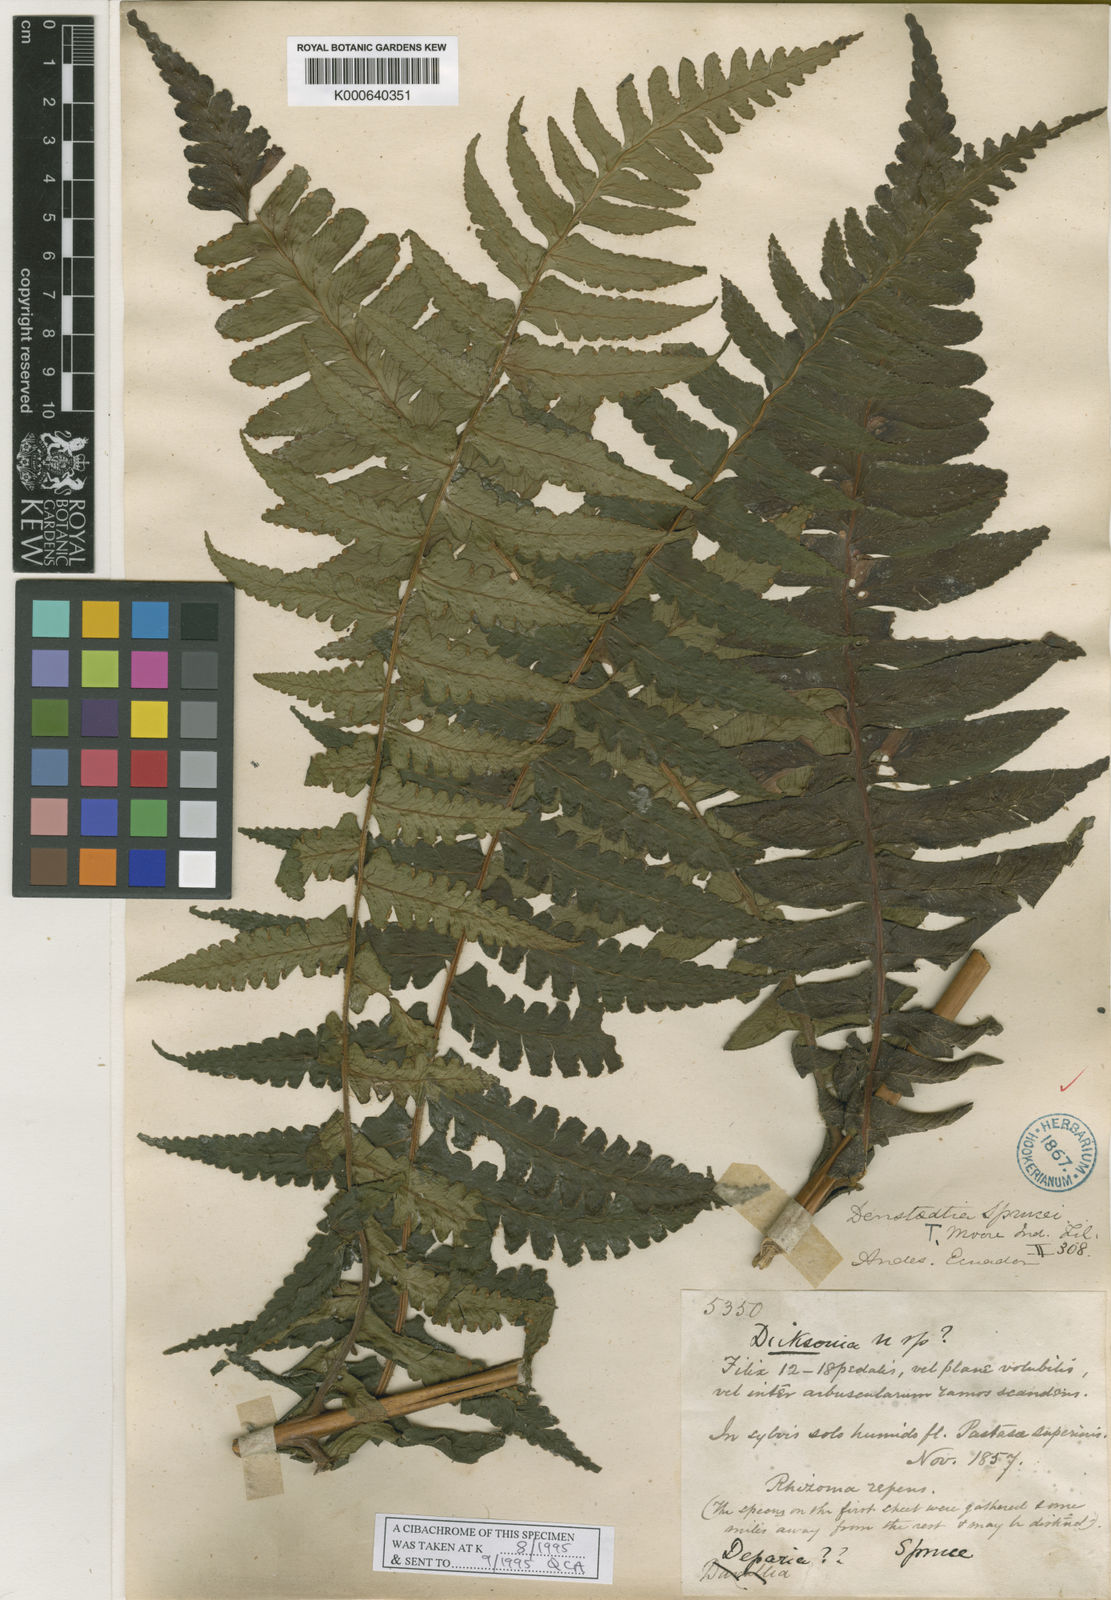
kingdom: Plantae
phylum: Tracheophyta
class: Polypodiopsida
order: Polypodiales
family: Dennstaedtiaceae
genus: Dennstaedtia
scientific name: Dennstaedtia sprucei
